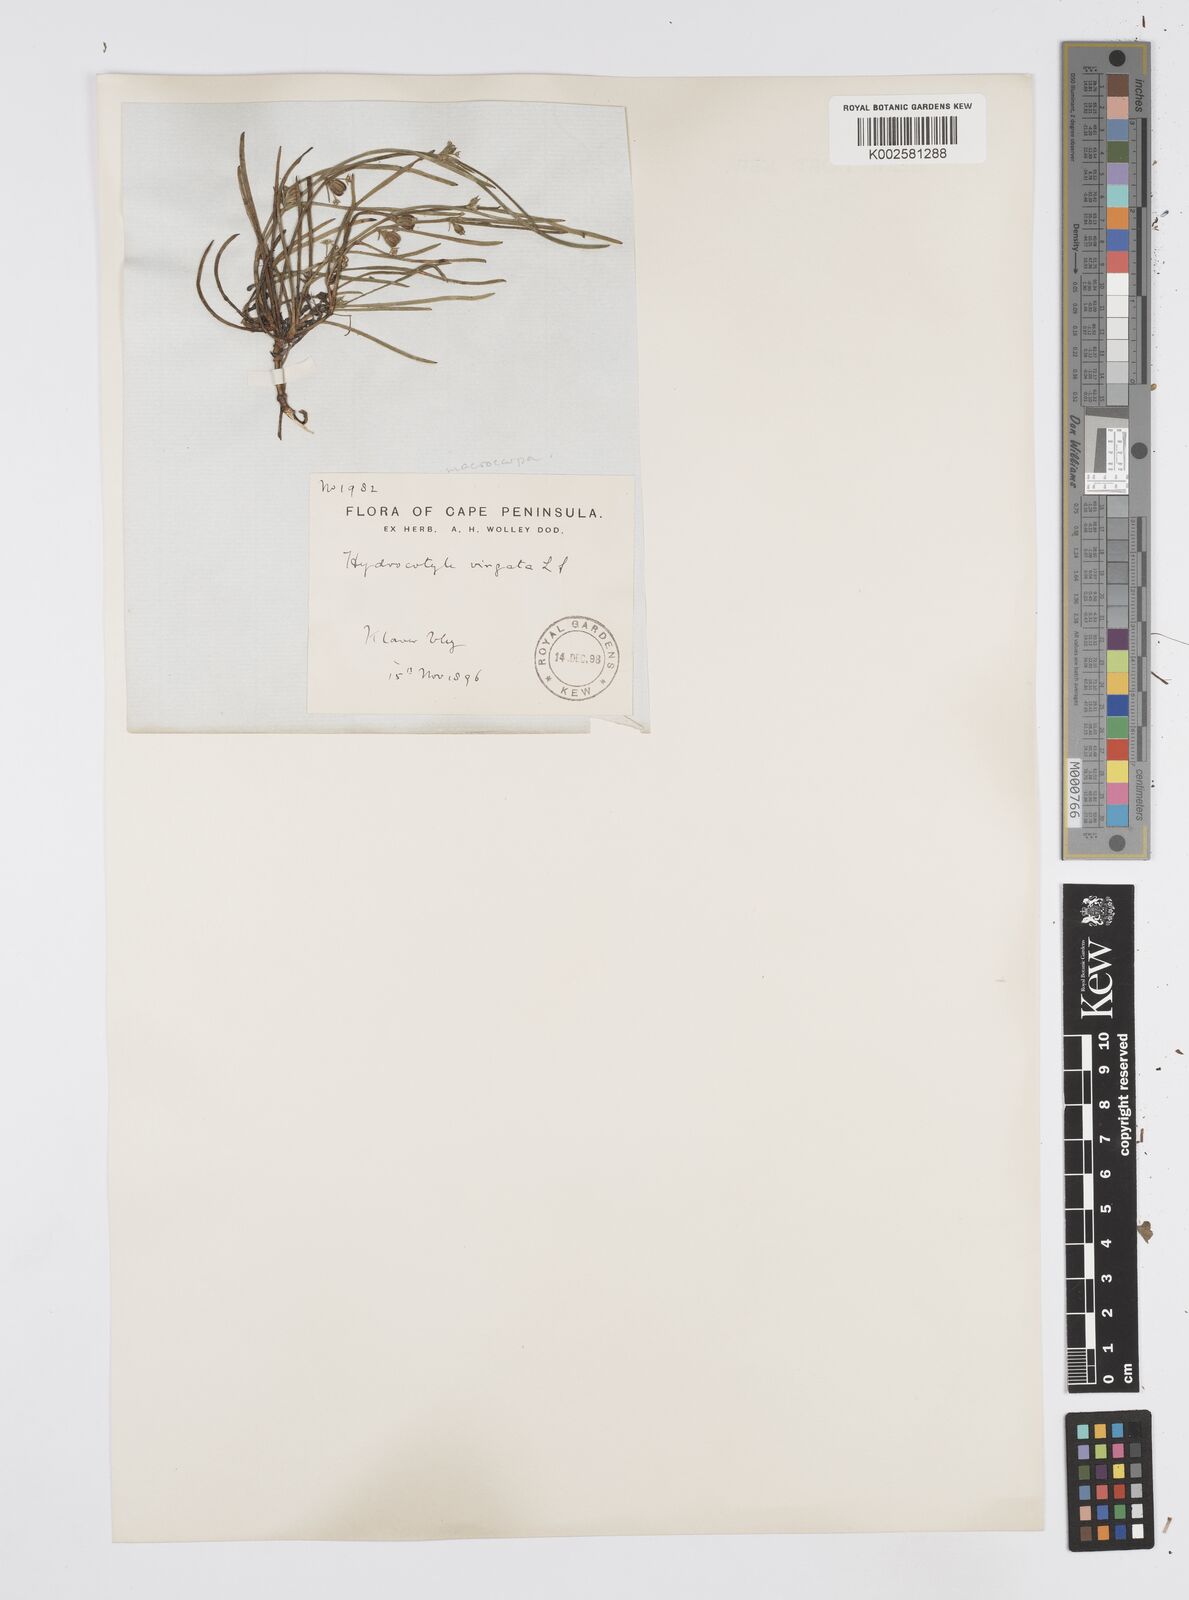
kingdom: Plantae
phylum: Tracheophyta
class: Magnoliopsida
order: Apiales
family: Apiaceae
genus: Centella
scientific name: Centella macrocarpa
